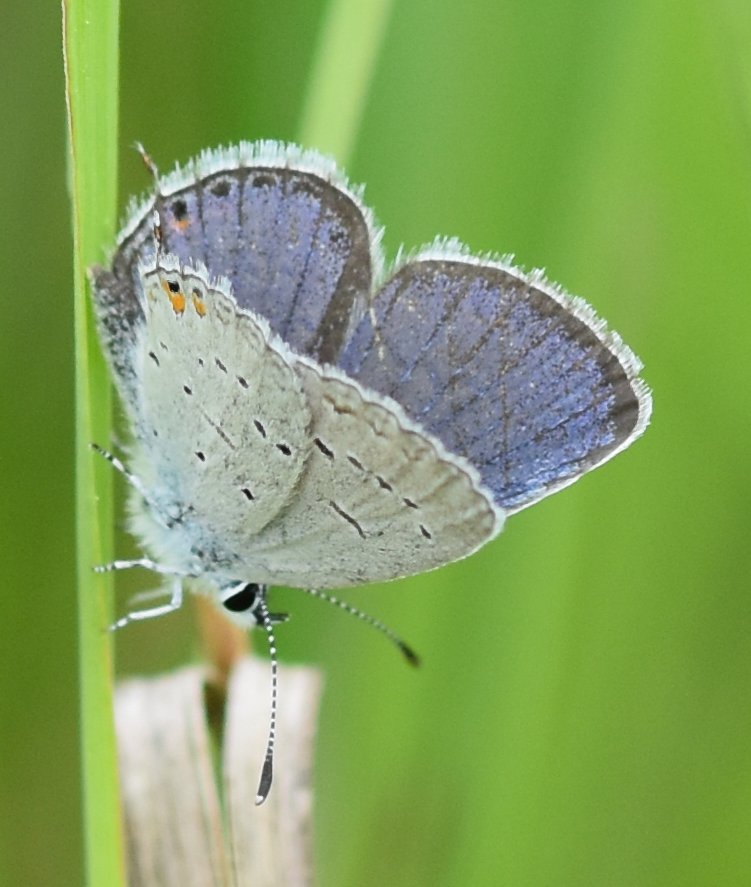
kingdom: Animalia
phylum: Arthropoda
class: Insecta
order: Lepidoptera
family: Lycaenidae
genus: Elkalyce
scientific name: Elkalyce comyntas
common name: Eastern Tailed-Blue
